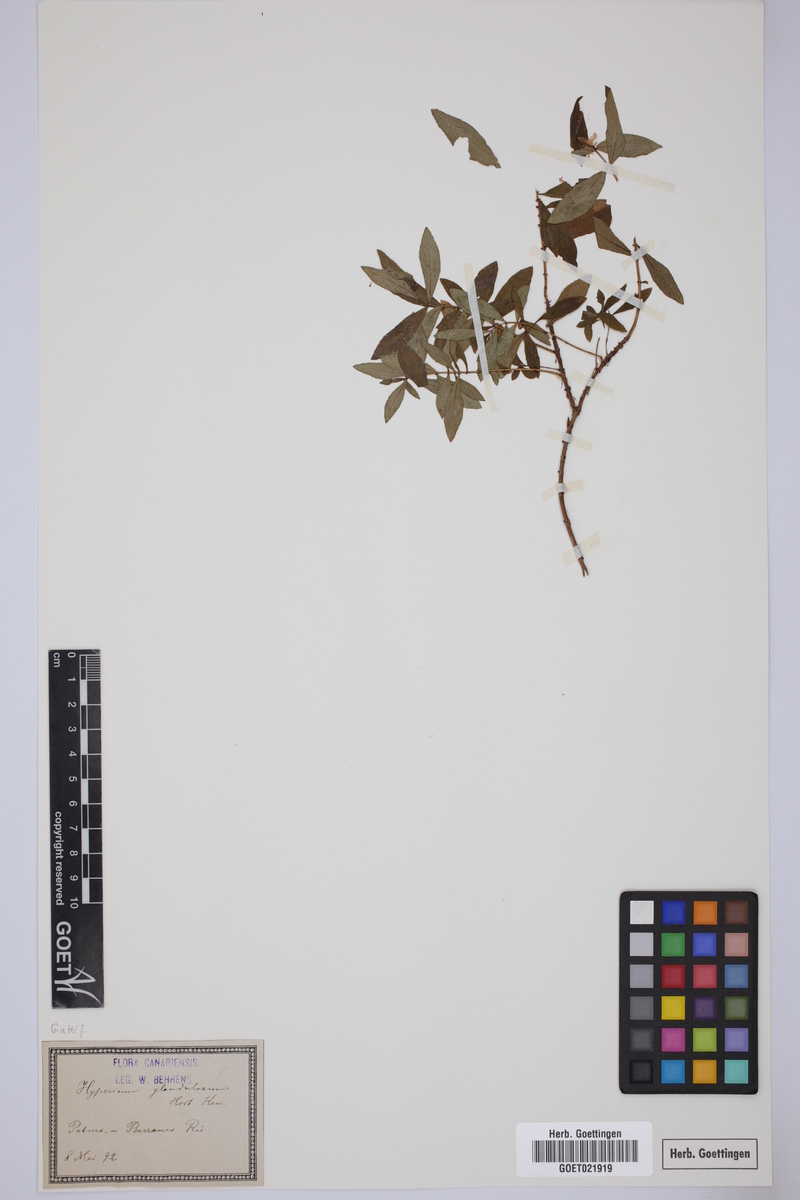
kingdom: Plantae
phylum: Tracheophyta
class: Magnoliopsida
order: Malpighiales
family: Hypericaceae
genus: Hypericum
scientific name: Hypericum glandulosum
